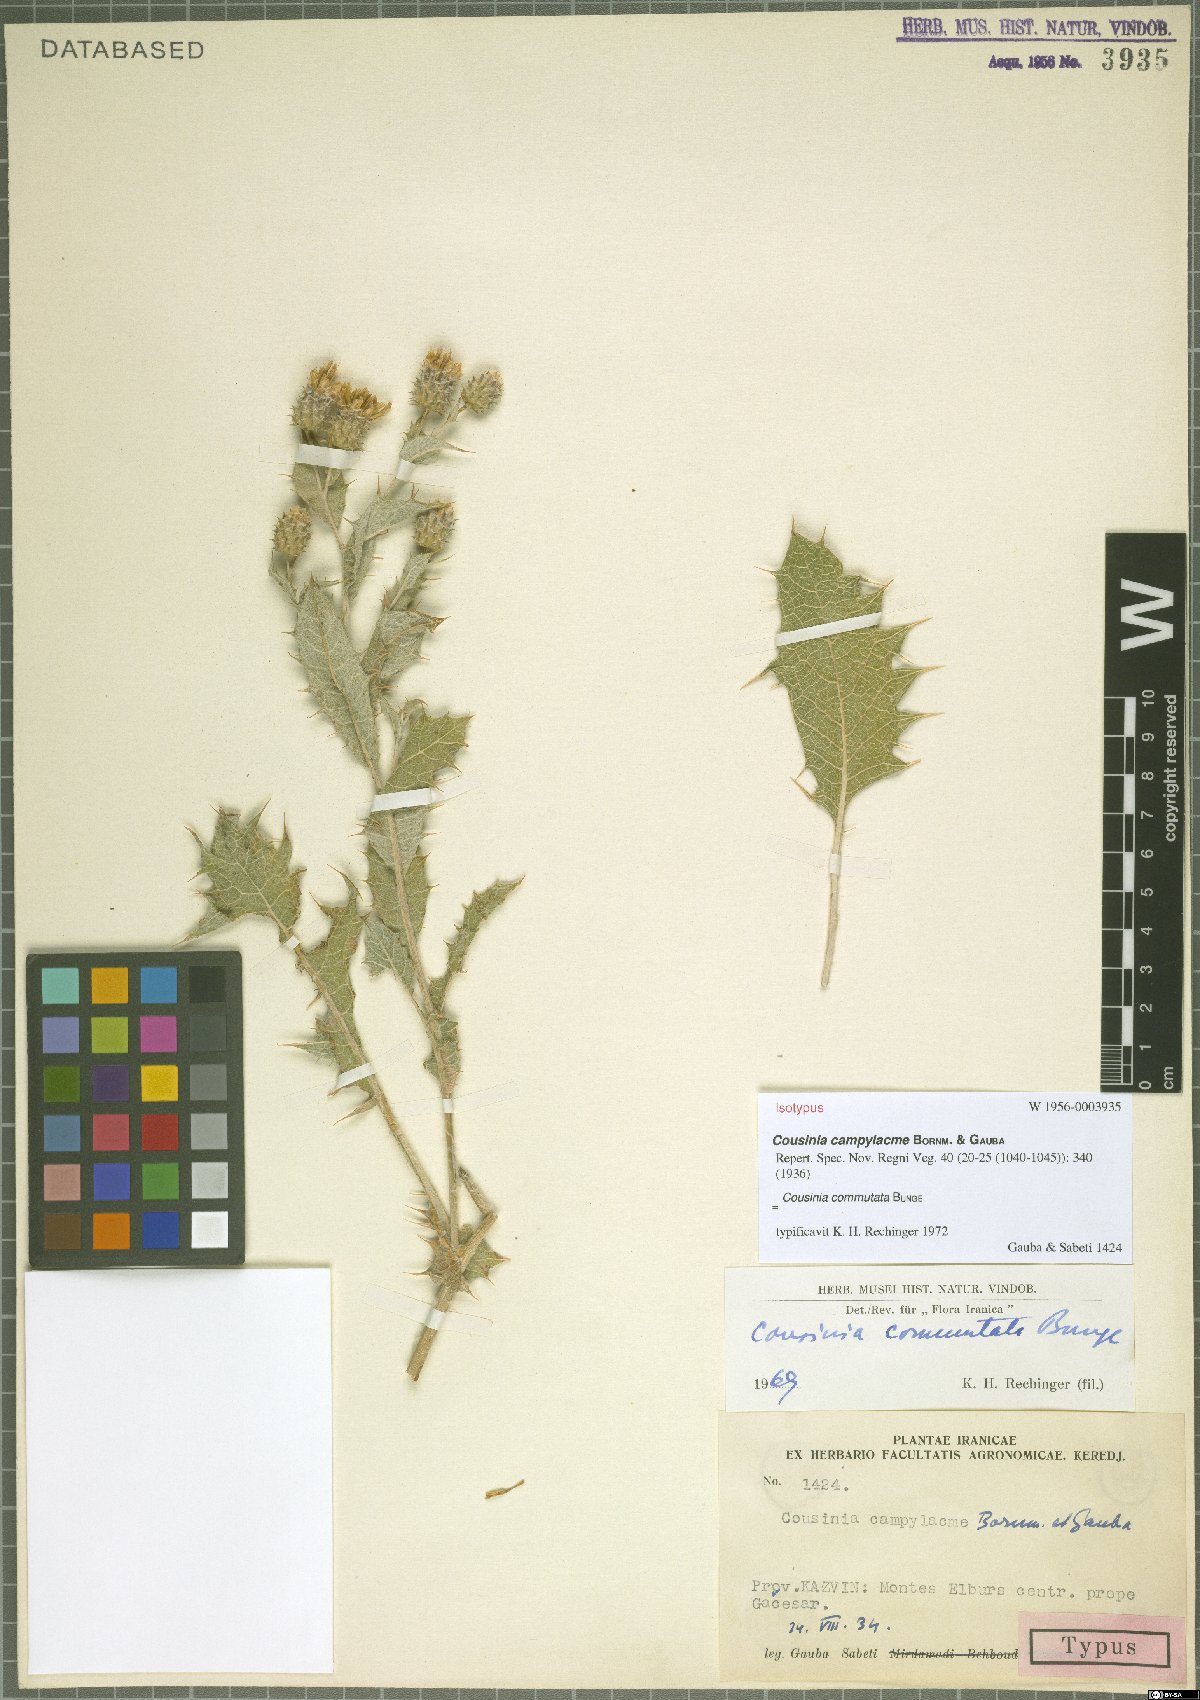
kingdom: Plantae
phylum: Tracheophyta
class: Magnoliopsida
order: Asterales
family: Asteraceae
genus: Cousinia
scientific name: Cousinia commutata
